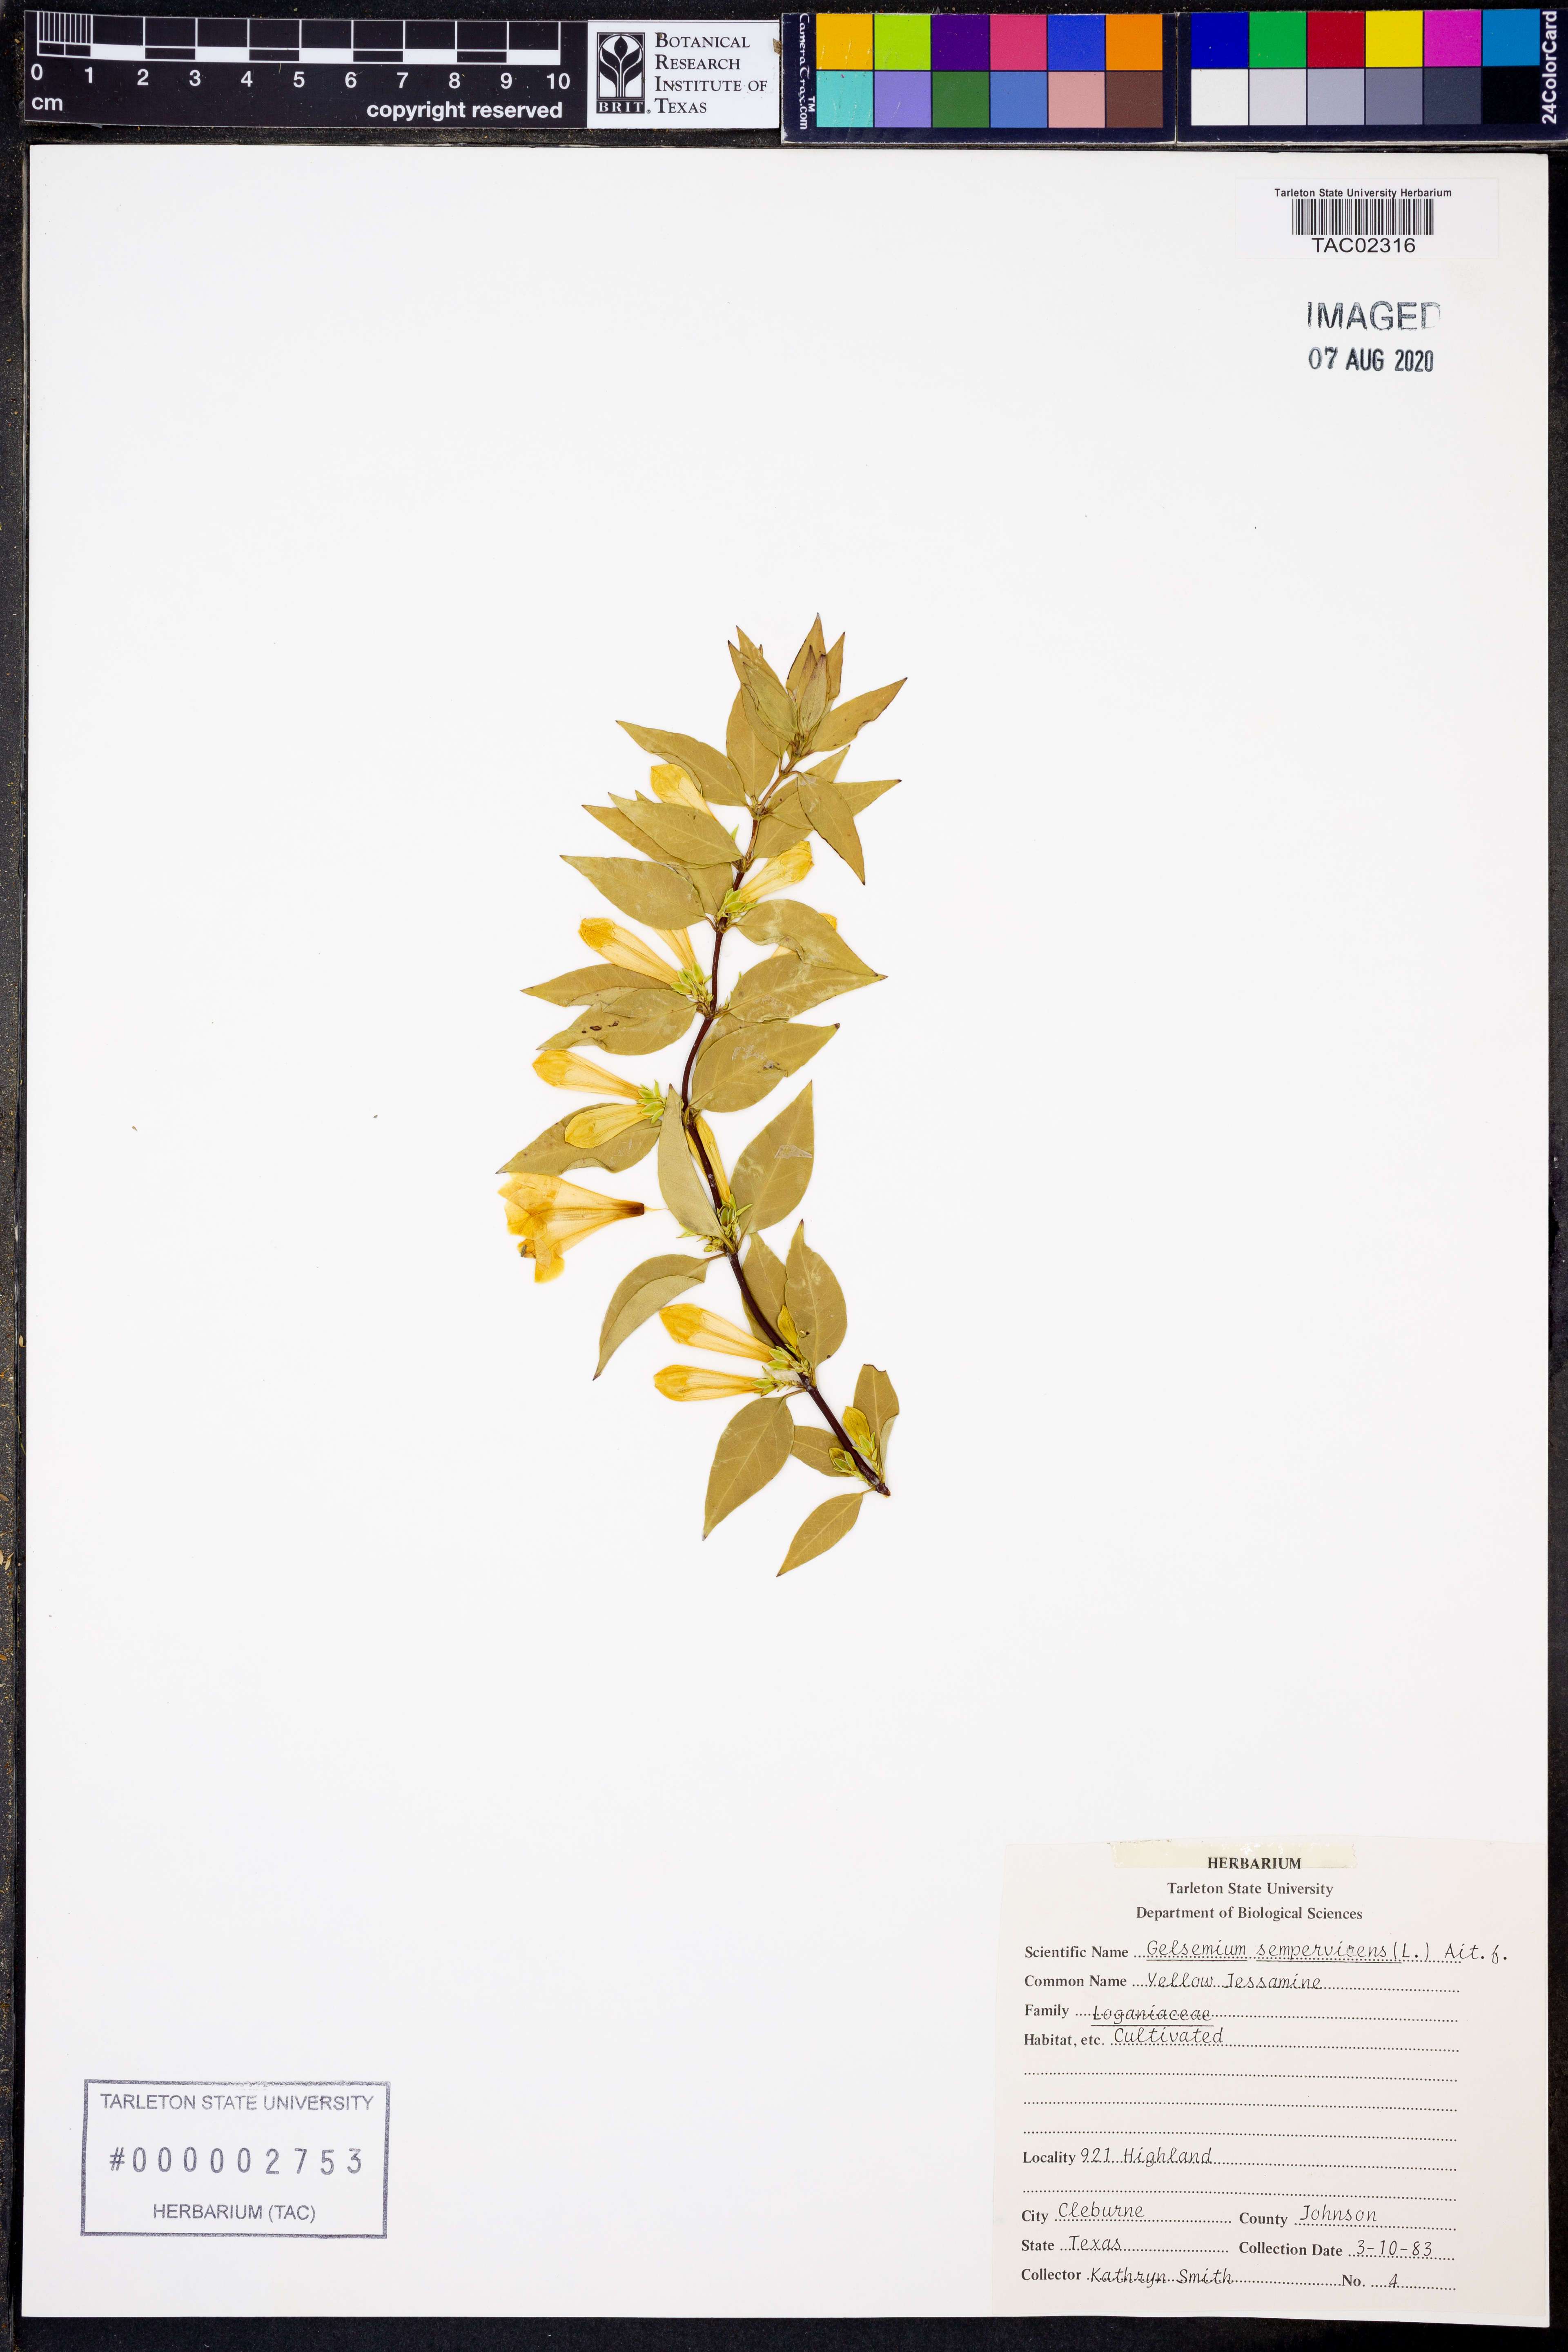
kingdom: Plantae
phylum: Tracheophyta
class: Magnoliopsida
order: Gentianales
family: Gelsemiaceae
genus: Gelsemium
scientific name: Gelsemium sempervirens
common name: Carolina-jasmine
